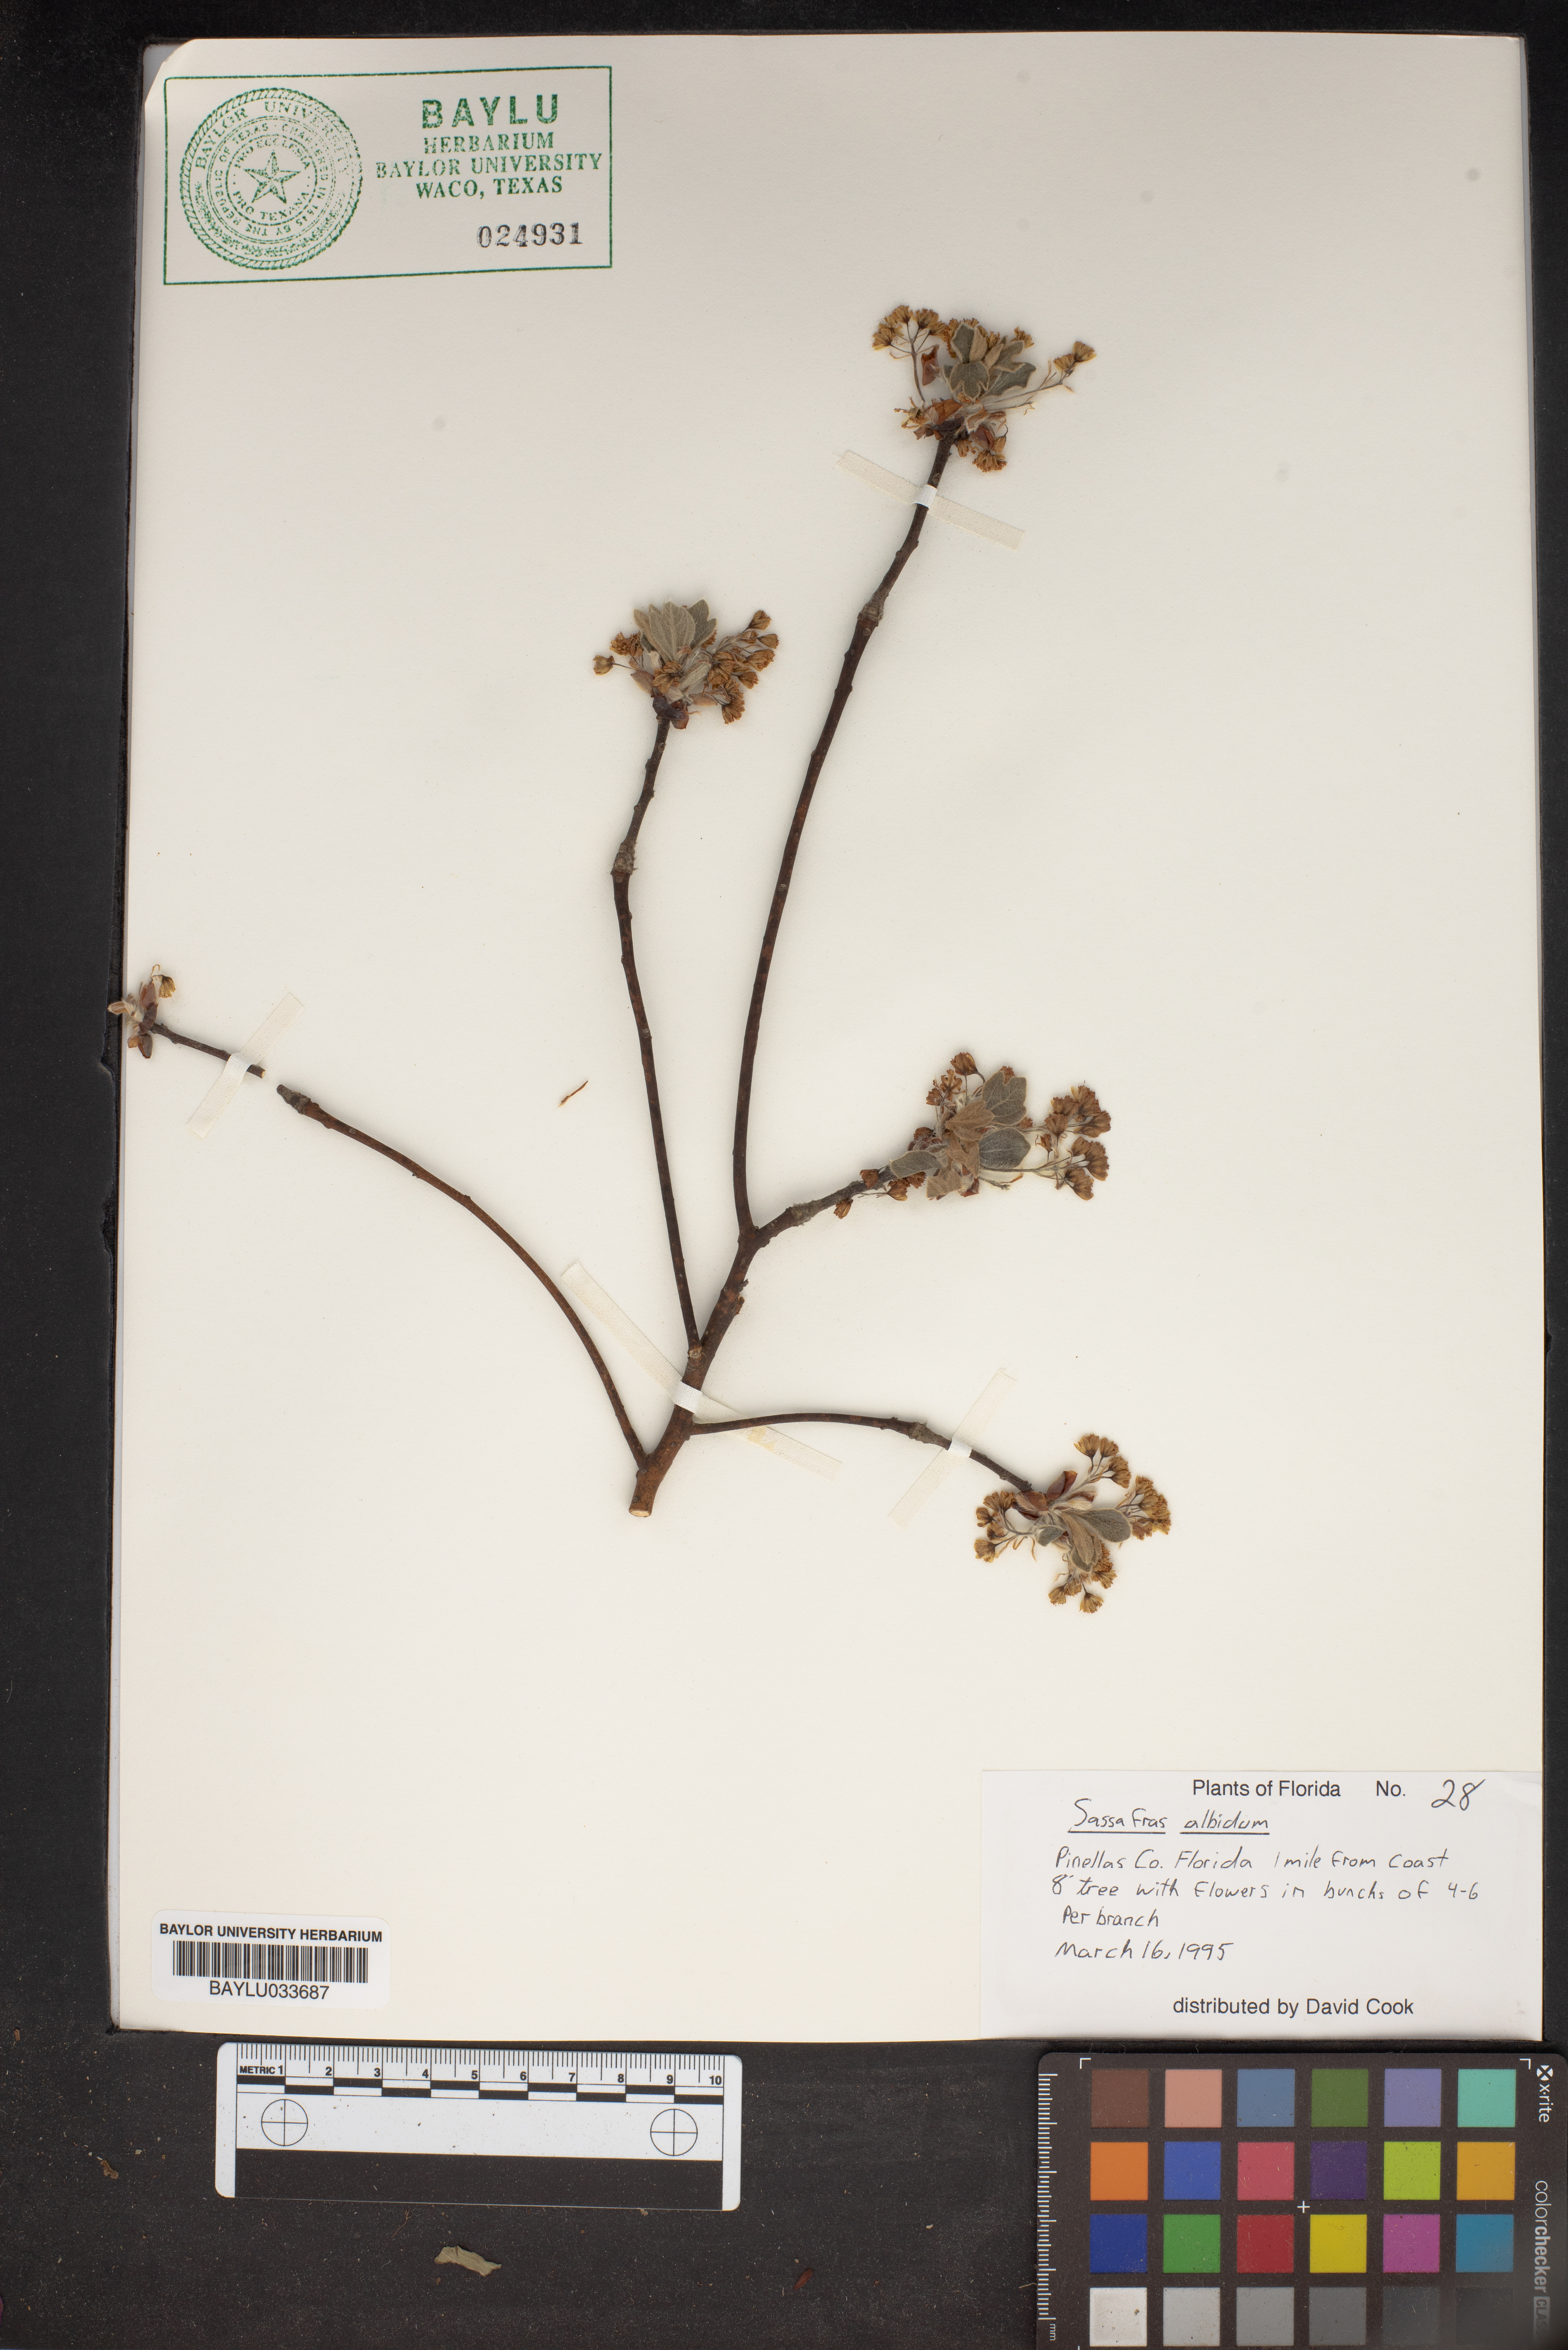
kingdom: Plantae
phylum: Tracheophyta
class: Magnoliopsida
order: Laurales
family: Lauraceae
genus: Sassafras
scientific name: Sassafras albidum
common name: Sassafras
